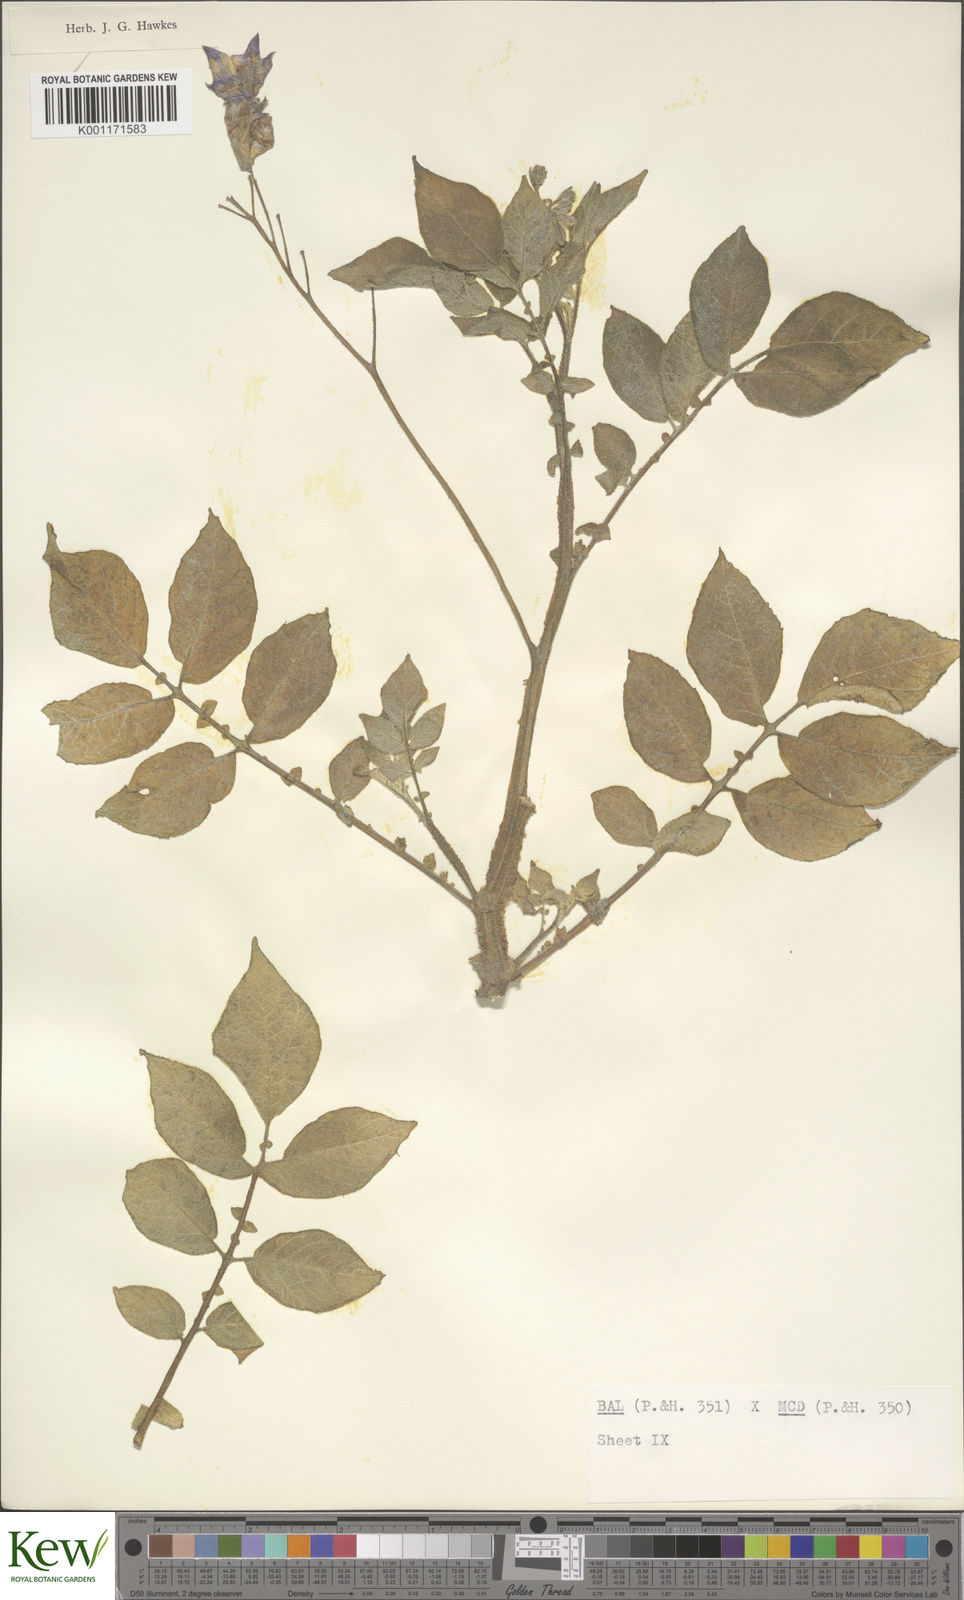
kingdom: Plantae
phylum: Tracheophyta
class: Magnoliopsida
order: Solanales
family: Solanaceae
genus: Solanum
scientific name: Solanum vernei
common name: Purple potato
